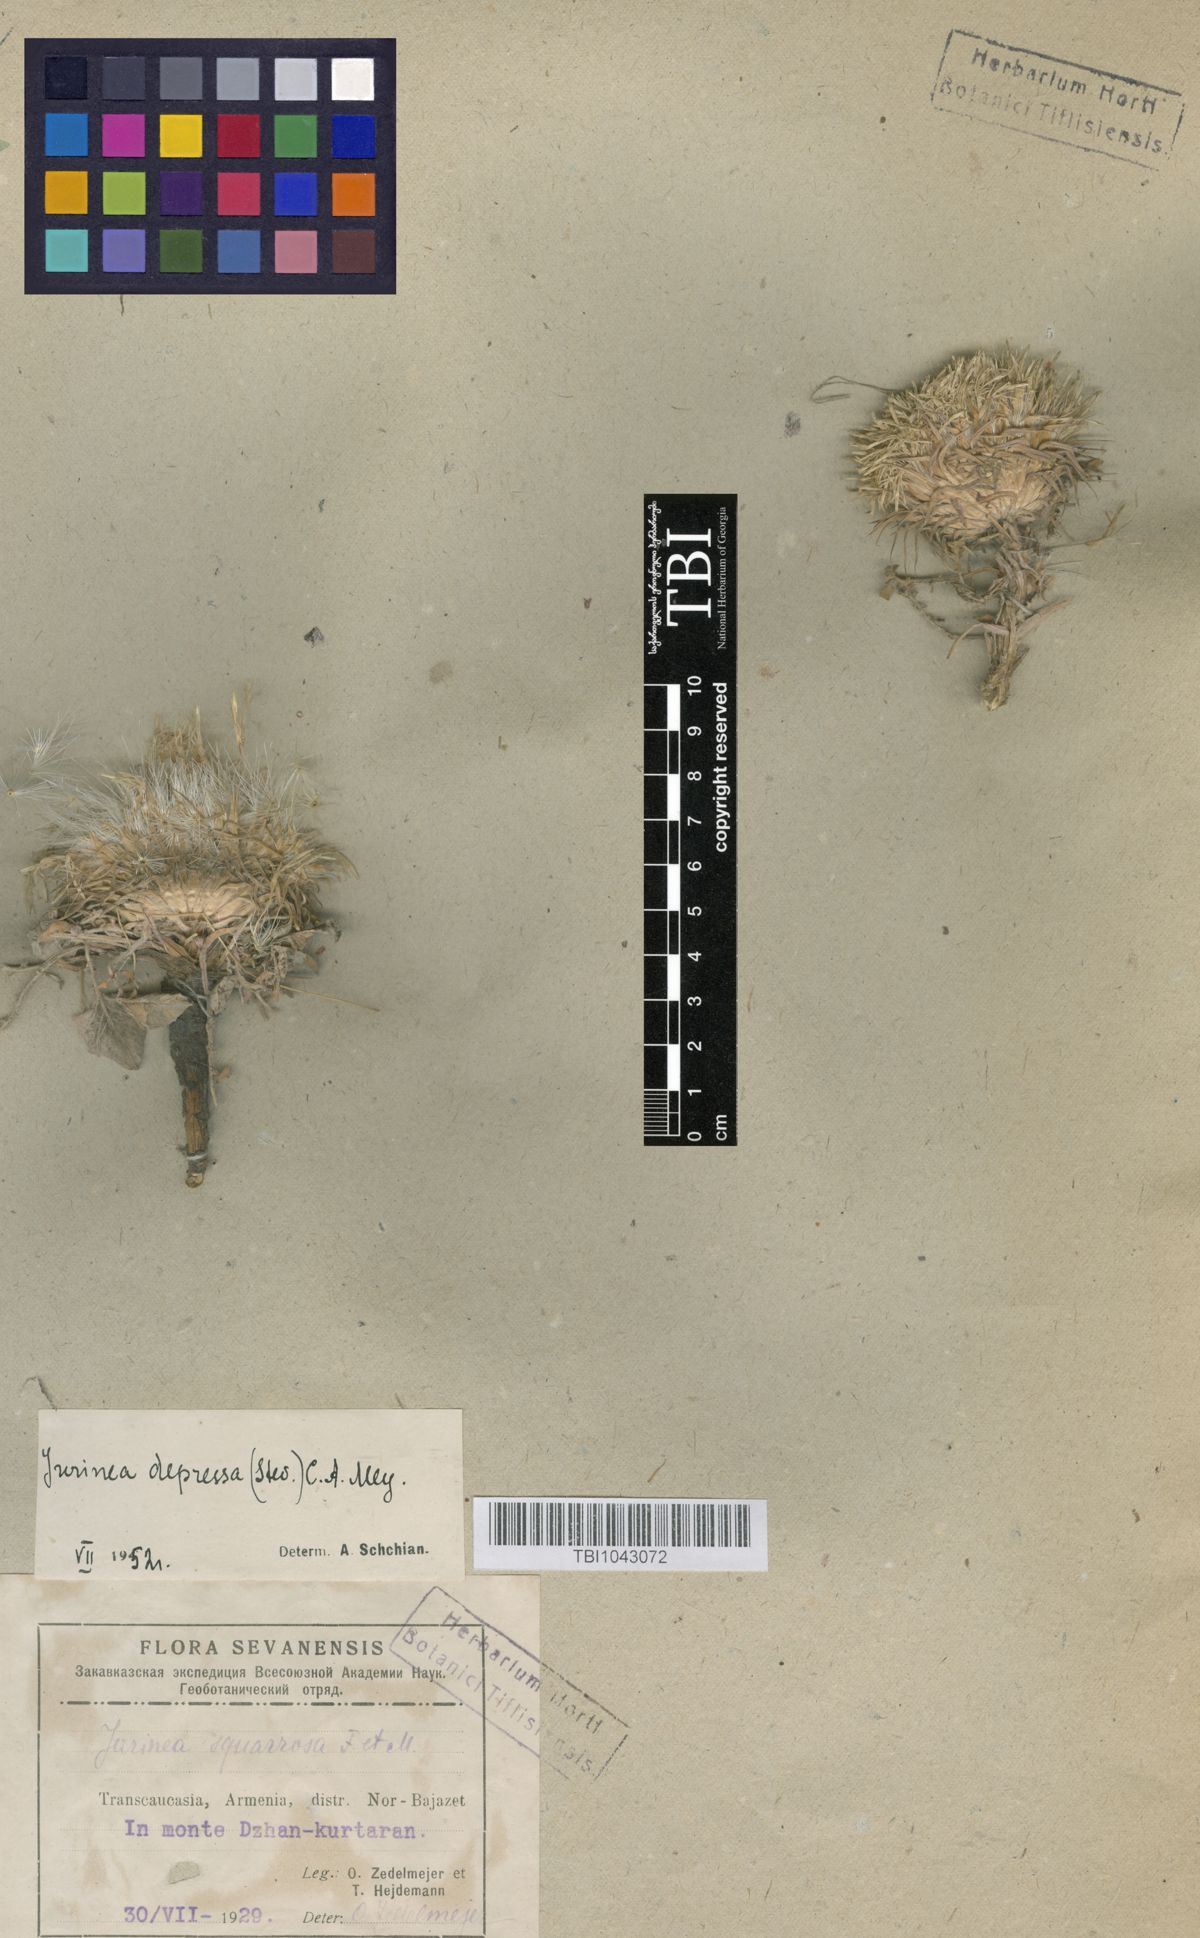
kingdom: Plantae
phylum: Tracheophyta
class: Magnoliopsida
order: Asterales
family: Asteraceae
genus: Jurinea
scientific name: Jurinea moschus
